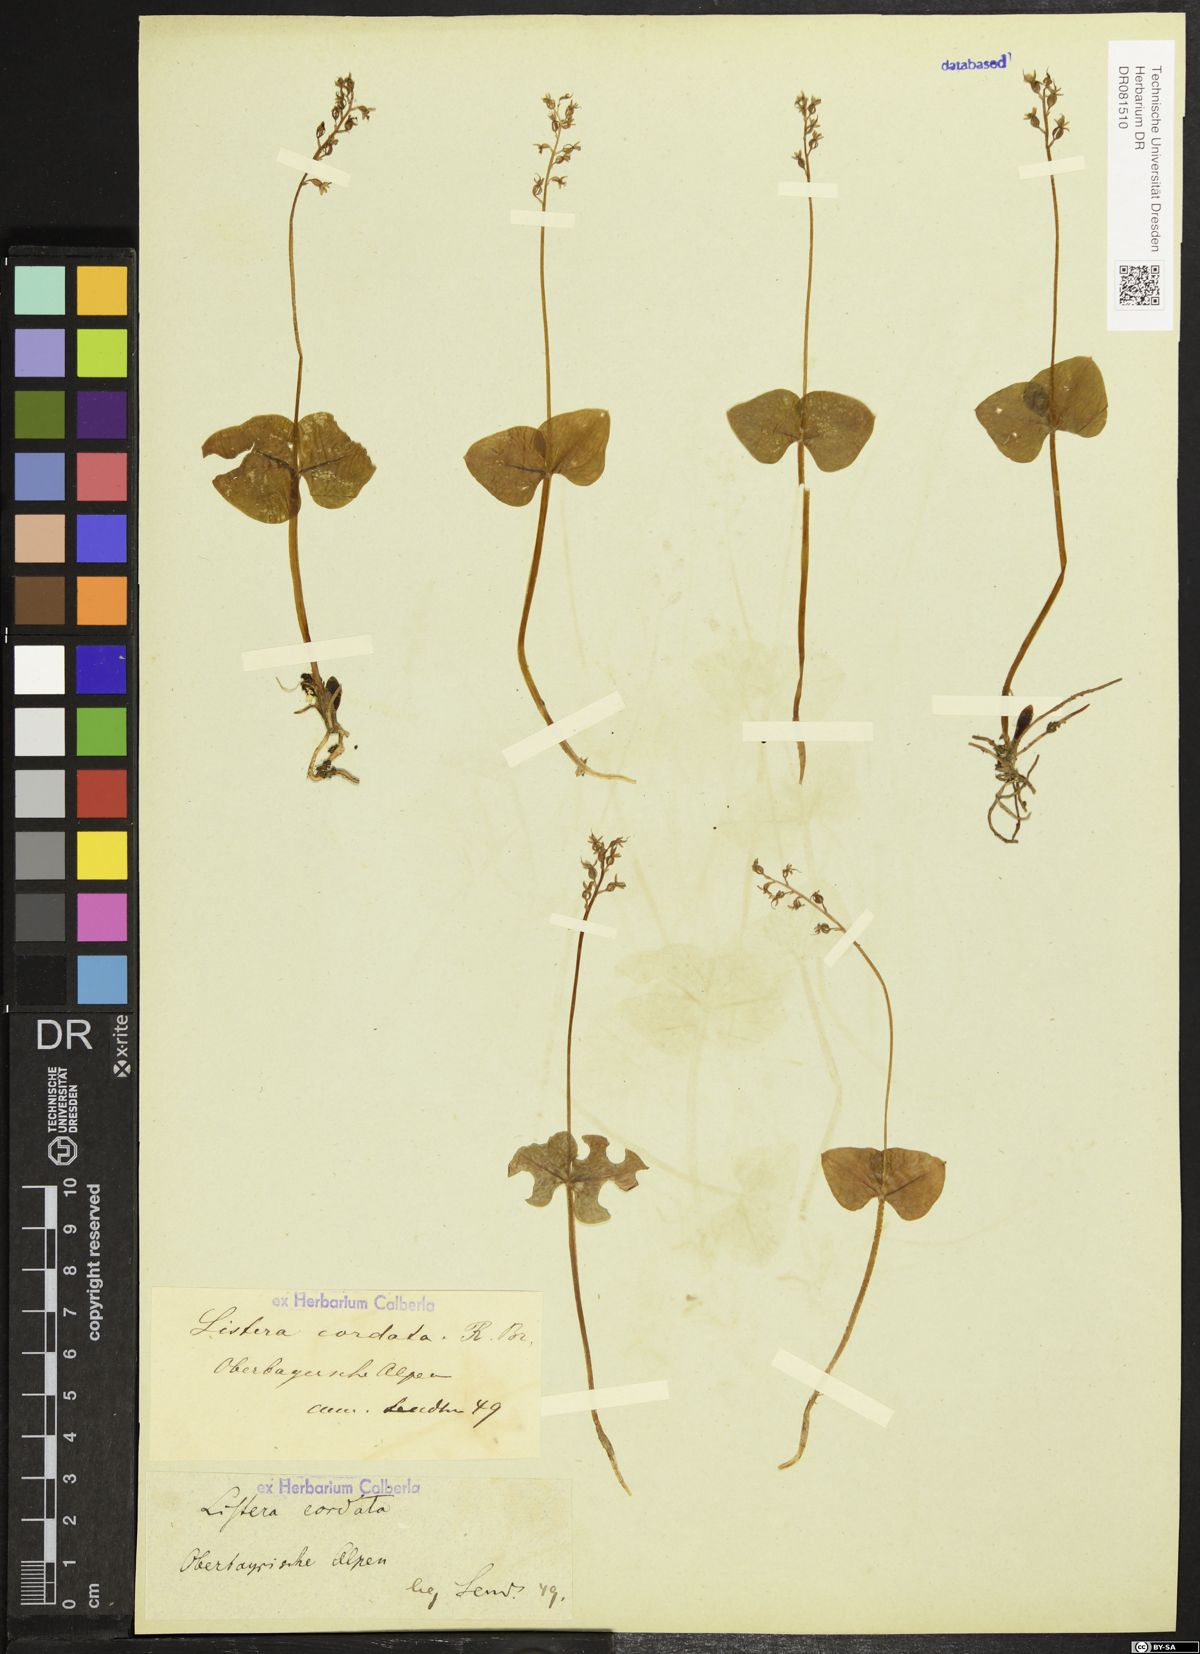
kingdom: Plantae
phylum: Tracheophyta
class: Liliopsida
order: Asparagales
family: Orchidaceae
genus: Neottia
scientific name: Neottia cordata
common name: Lesser twayblade
